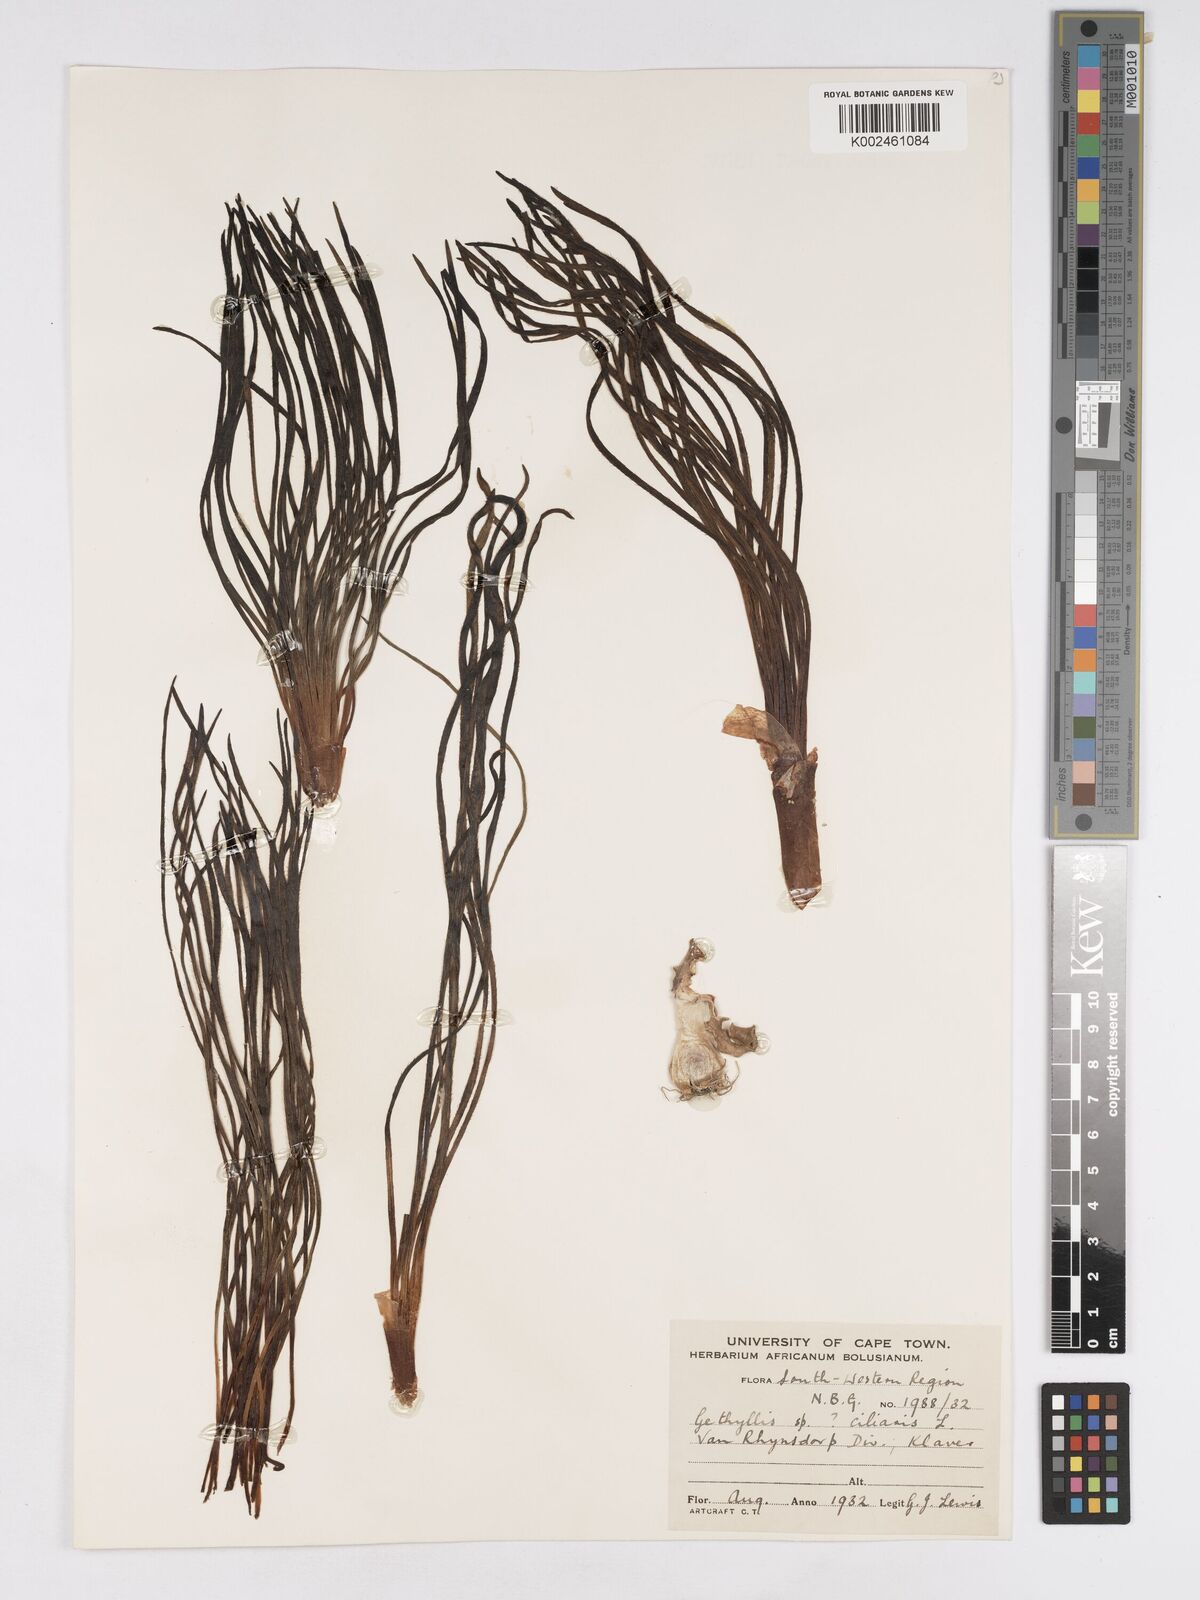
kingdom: Plantae
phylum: Tracheophyta
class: Liliopsida
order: Asparagales
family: Amaryllidaceae
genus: Gethyllis
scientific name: Gethyllis ciliaris
